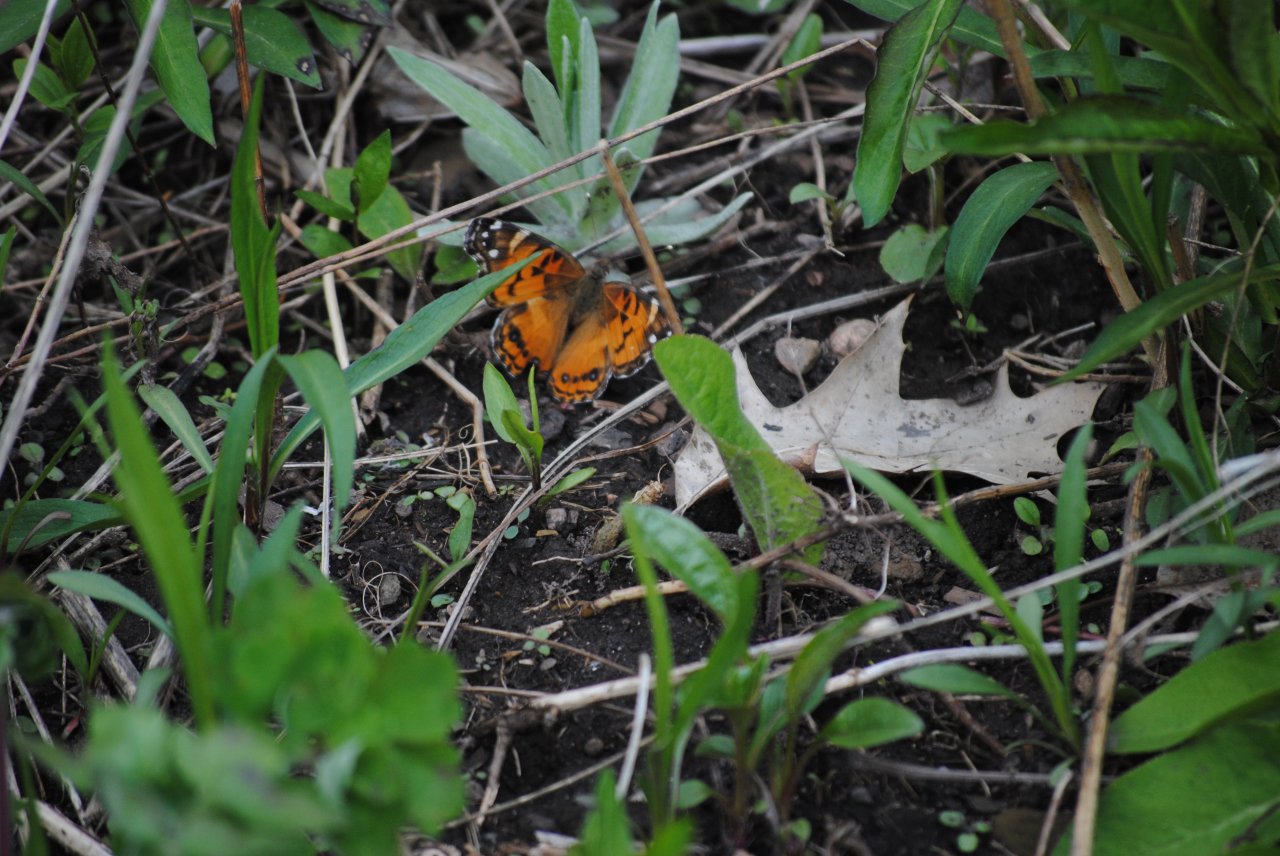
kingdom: Animalia
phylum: Arthropoda
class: Insecta
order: Lepidoptera
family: Nymphalidae
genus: Vanessa
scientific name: Vanessa virginiensis
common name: American Lady
